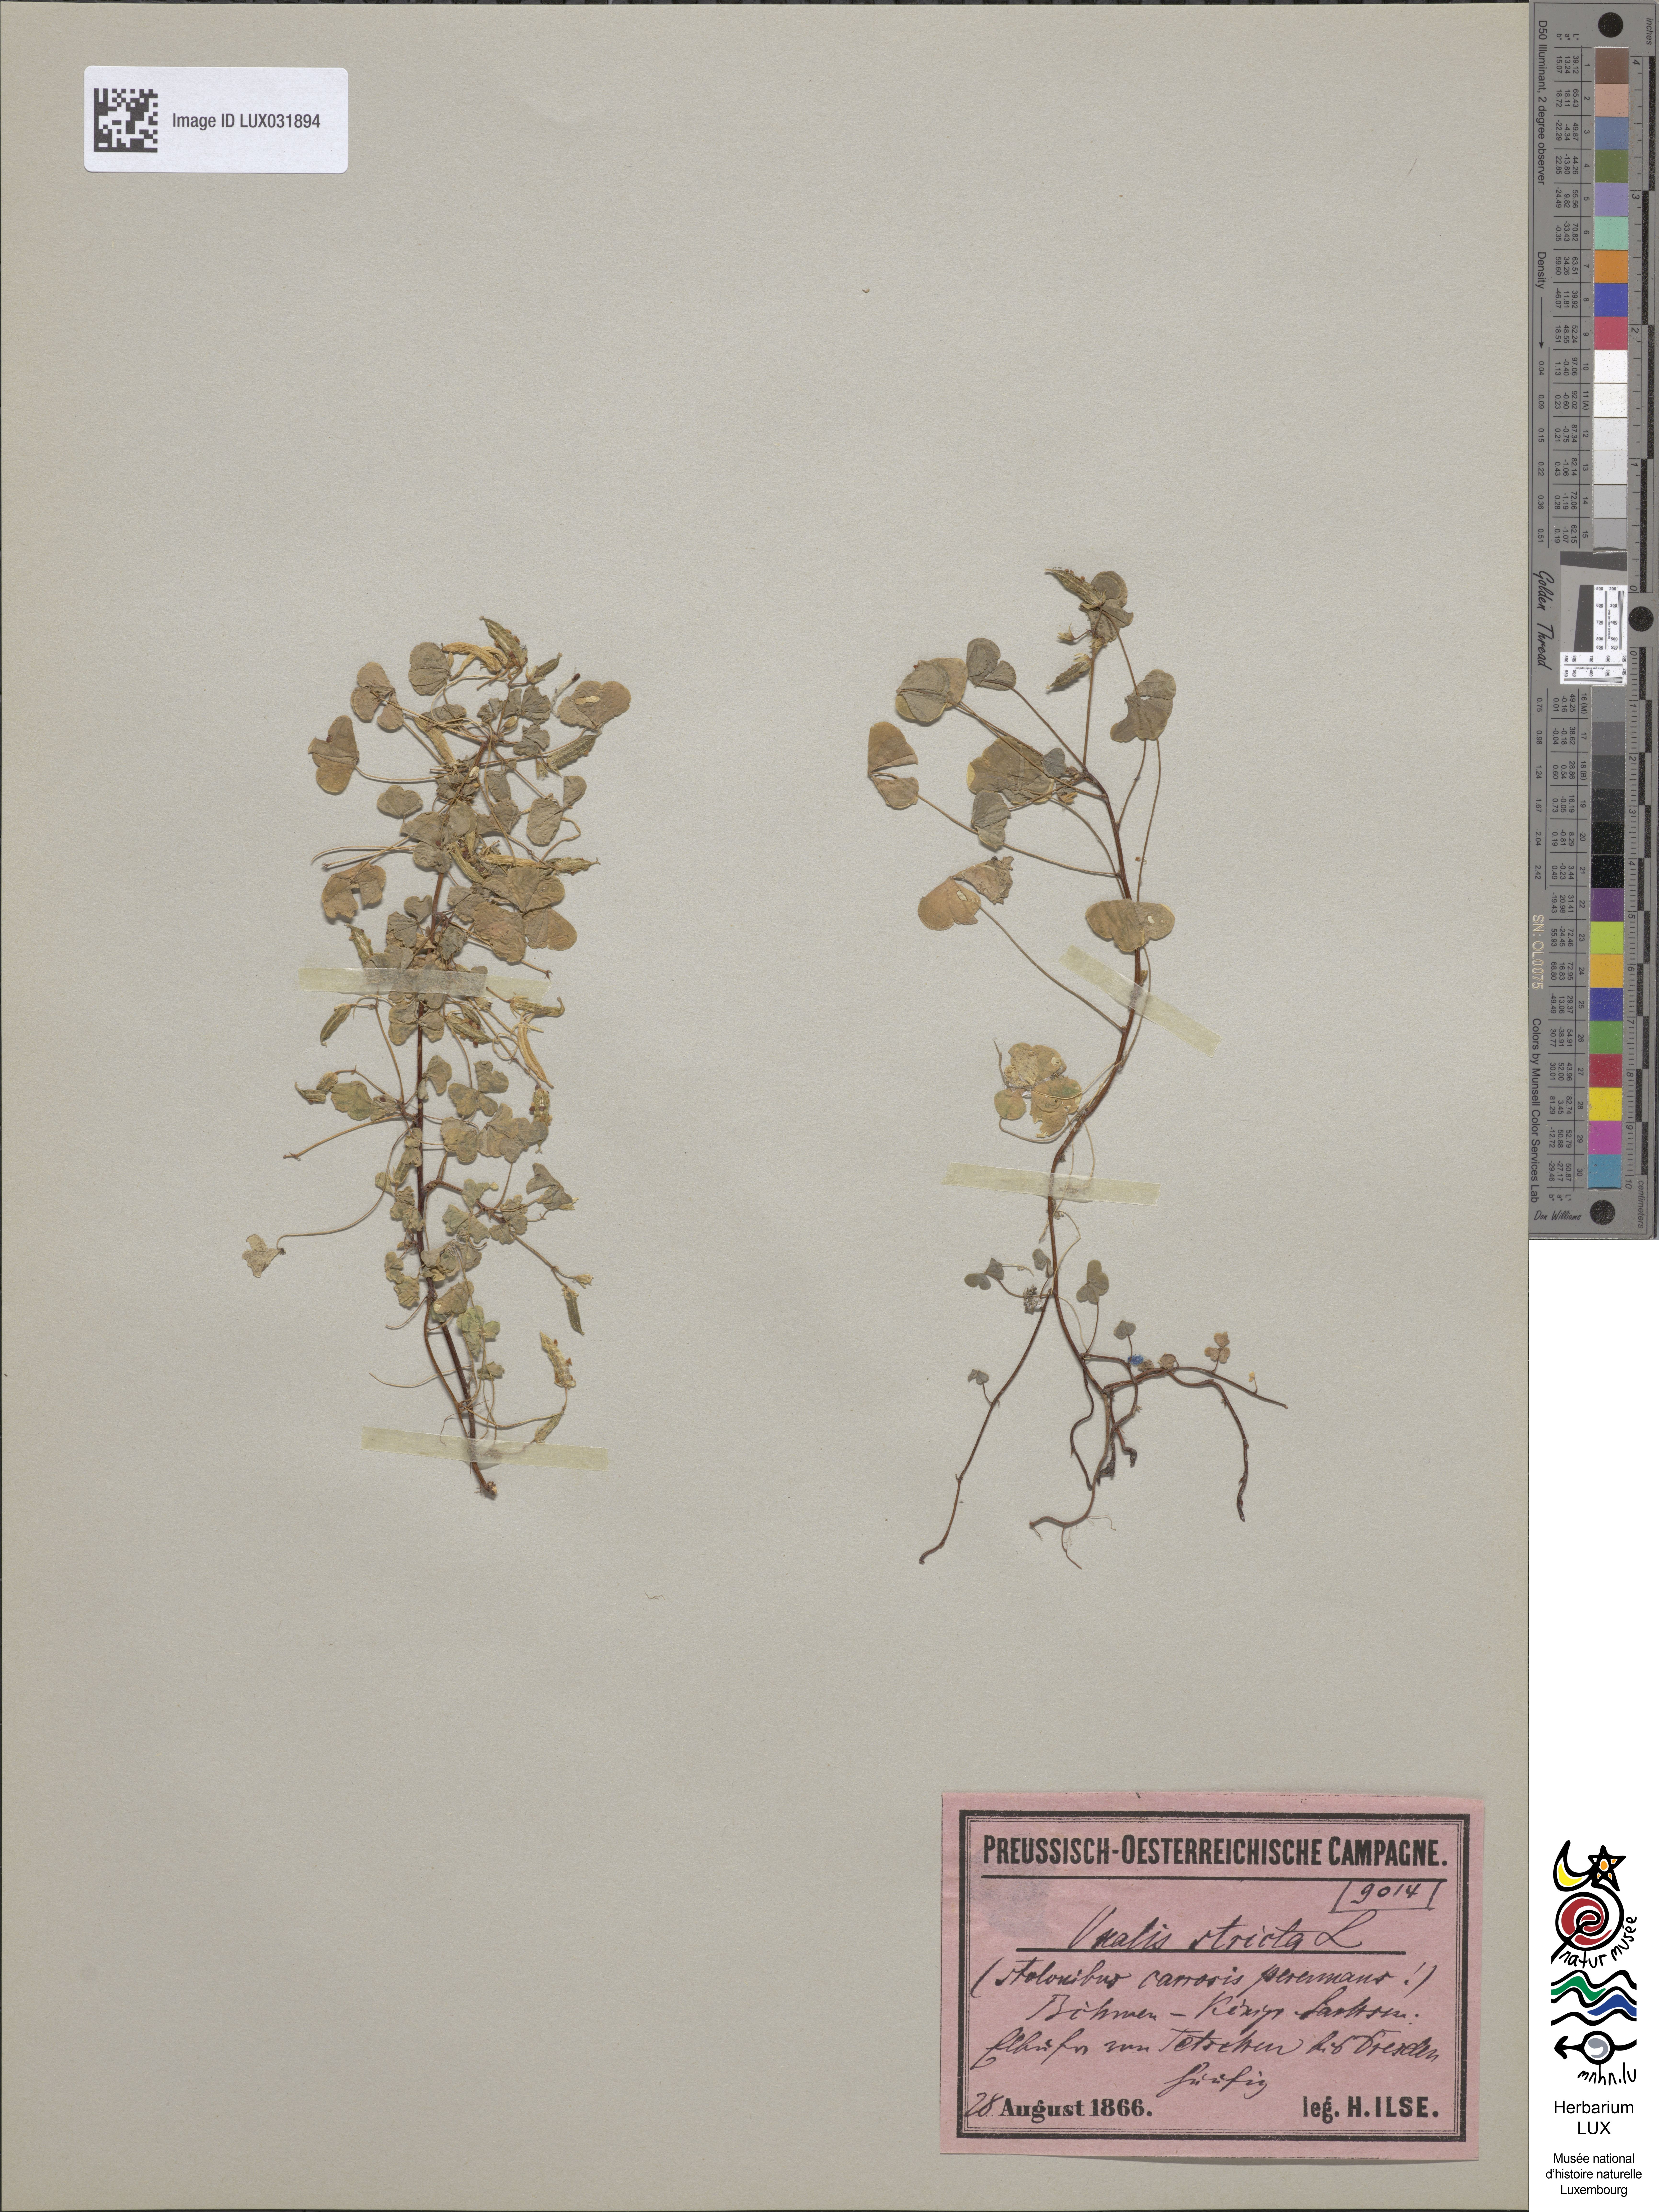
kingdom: Plantae
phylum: Tracheophyta
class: Magnoliopsida
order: Oxalidales
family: Oxalidaceae
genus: Oxalis
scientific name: Oxalis stricta
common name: Upright yellow-sorrel
